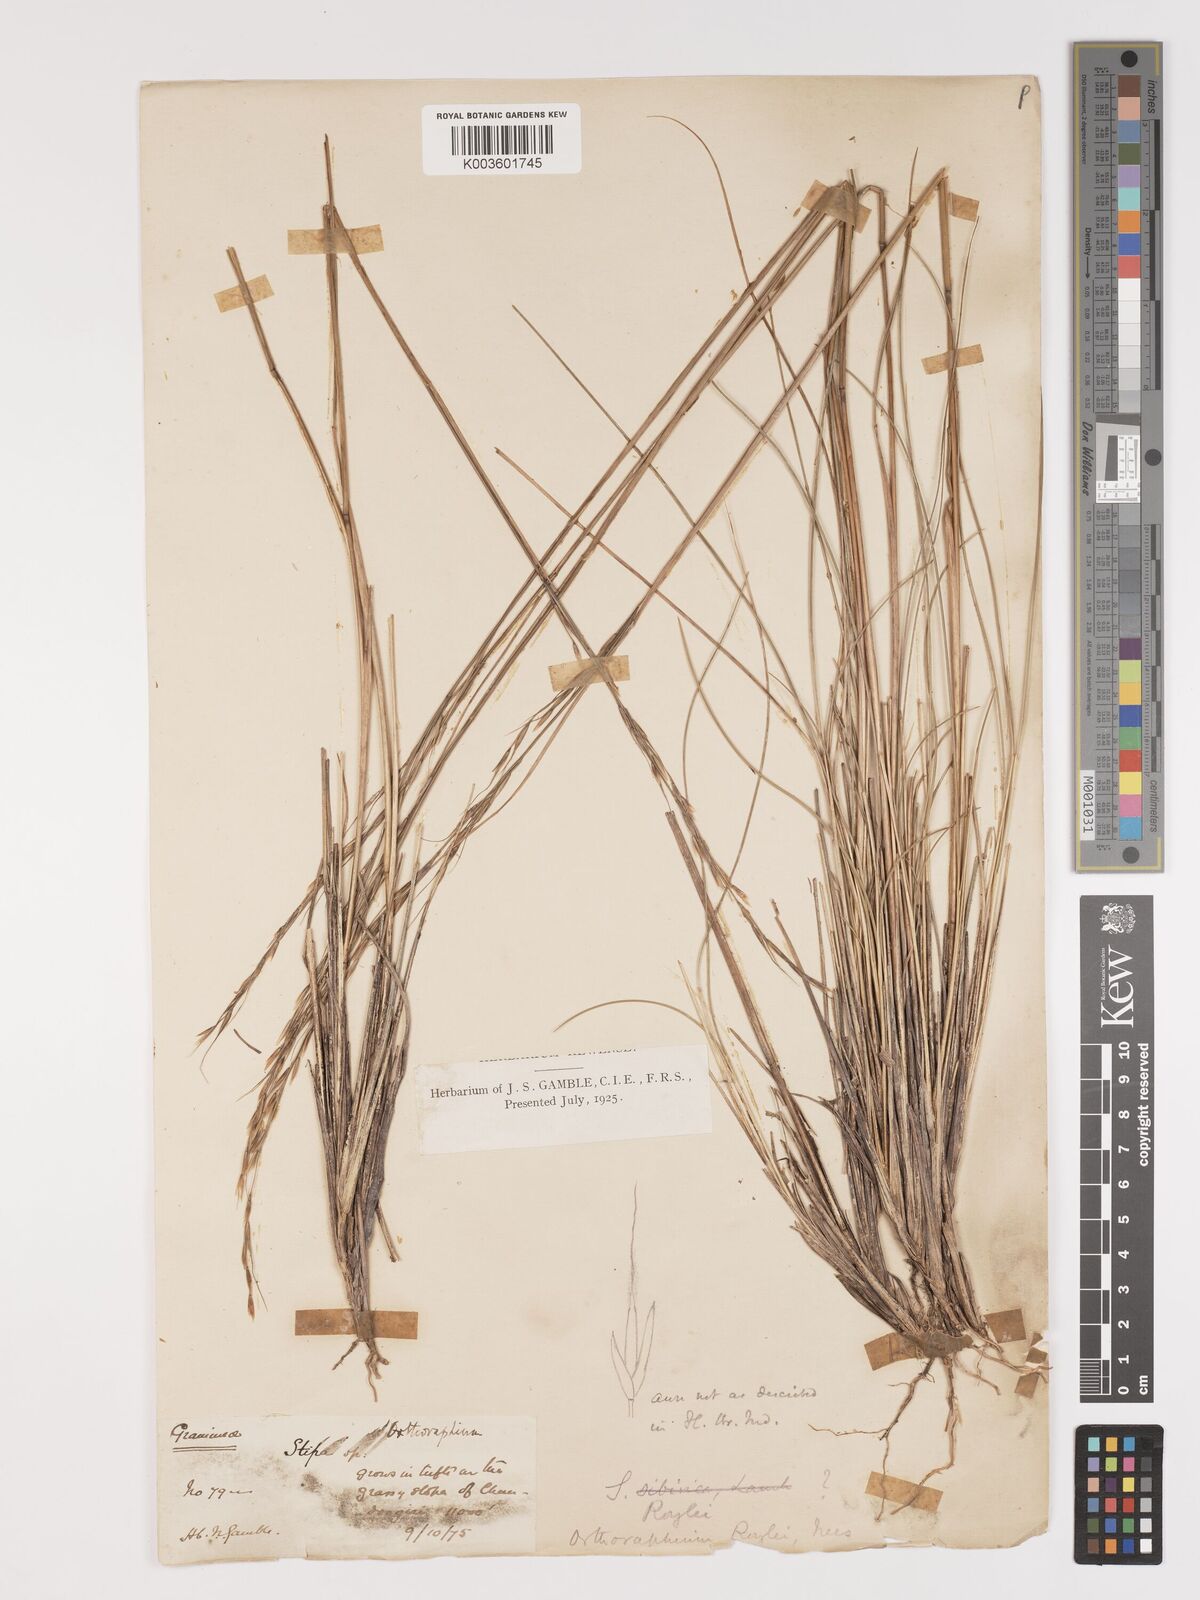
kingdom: Plantae
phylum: Tracheophyta
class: Liliopsida
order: Poales
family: Poaceae
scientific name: Poaceae
